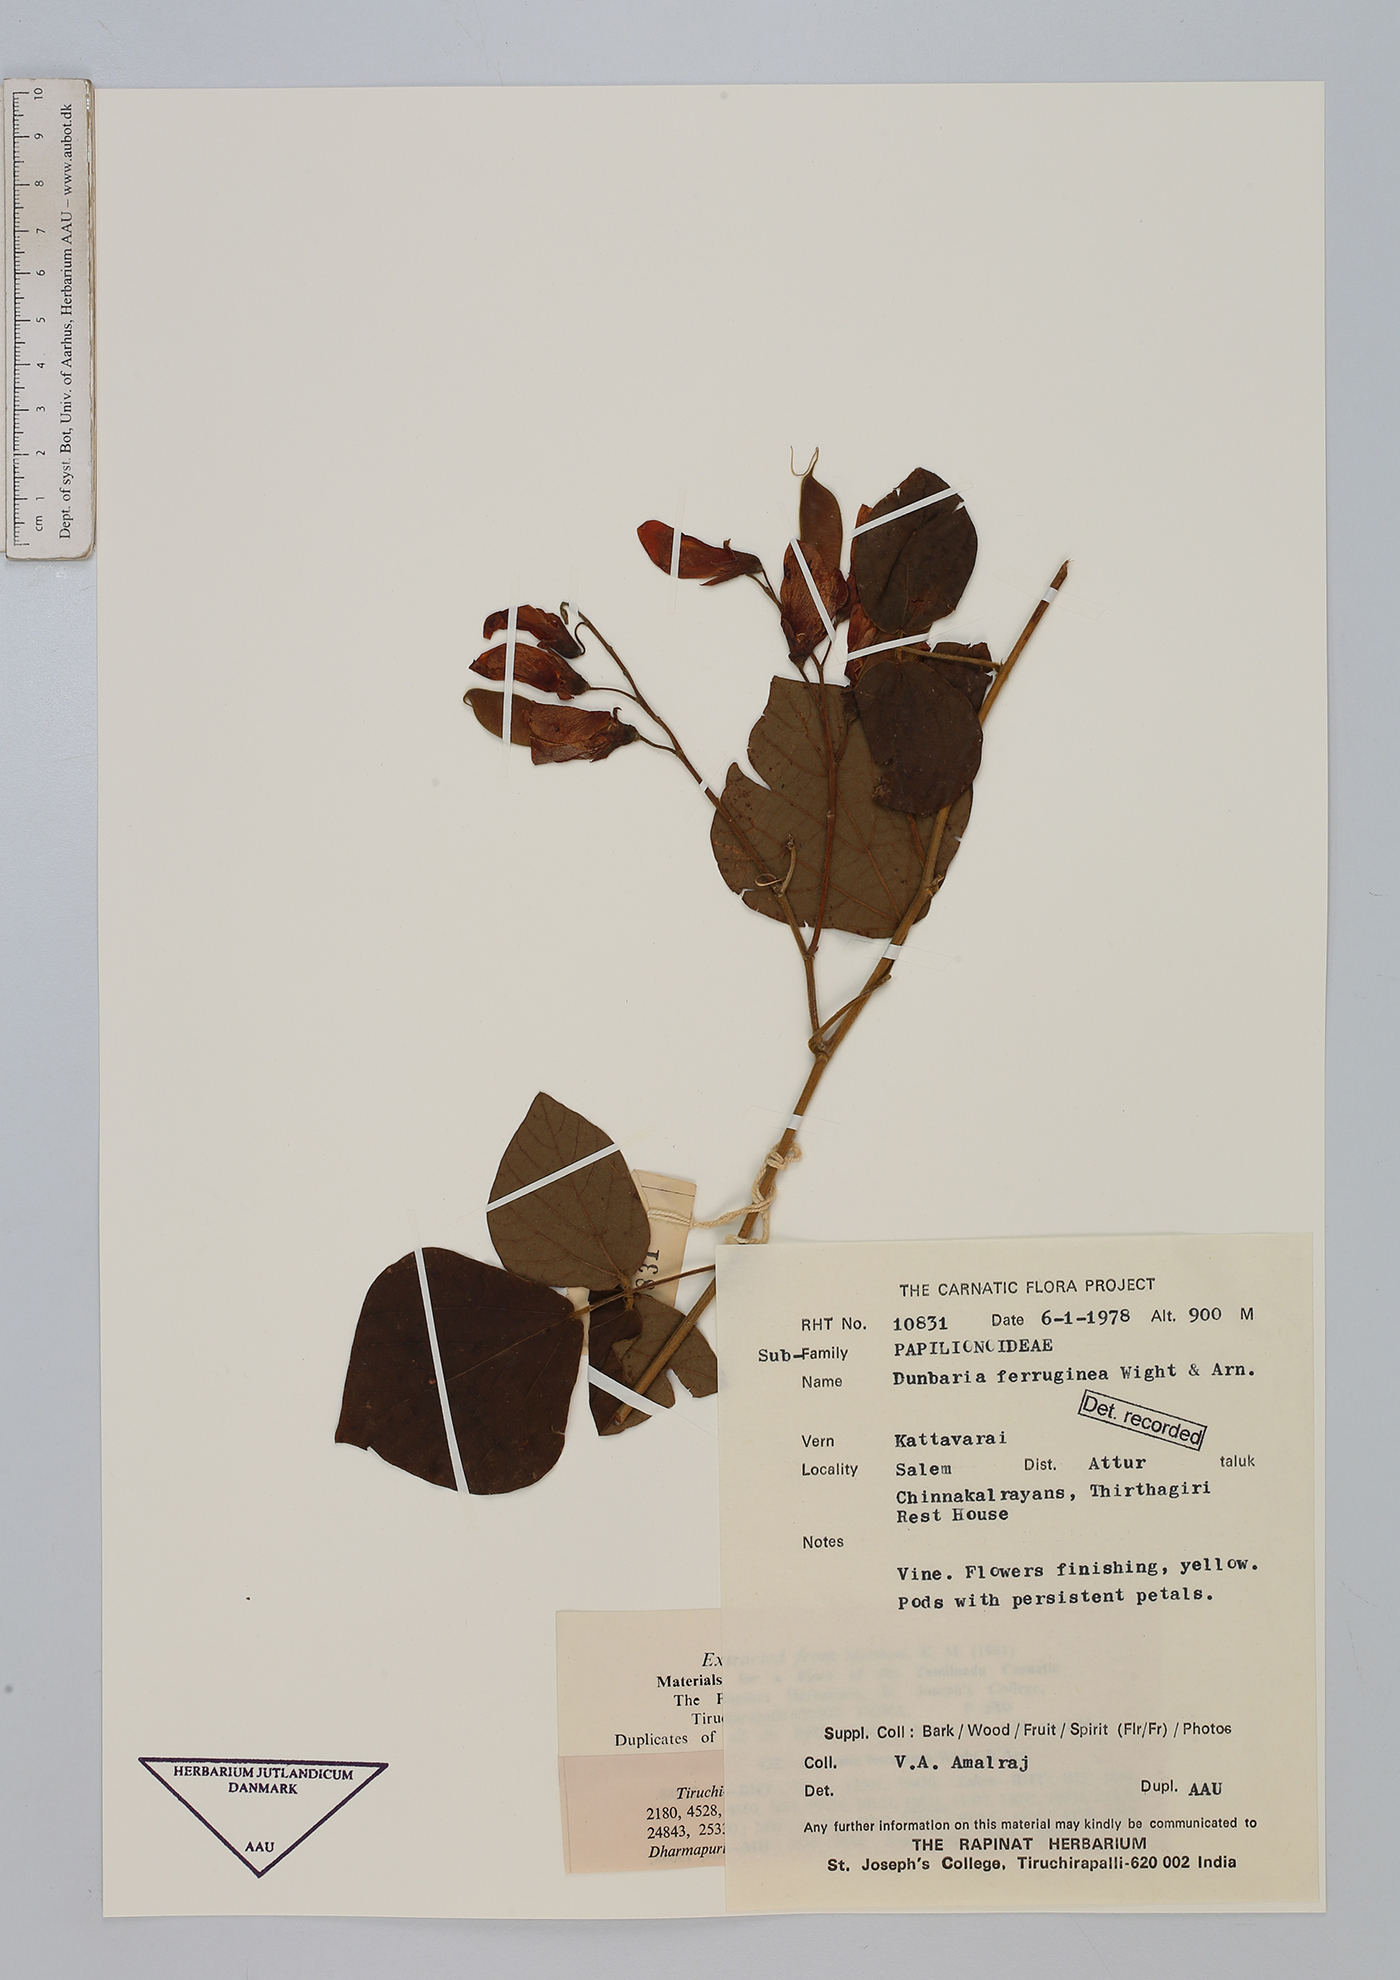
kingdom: Plantae
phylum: Tracheophyta
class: Magnoliopsida
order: Fabales
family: Fabaceae
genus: Dunbaria
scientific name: Dunbaria ferruginea
